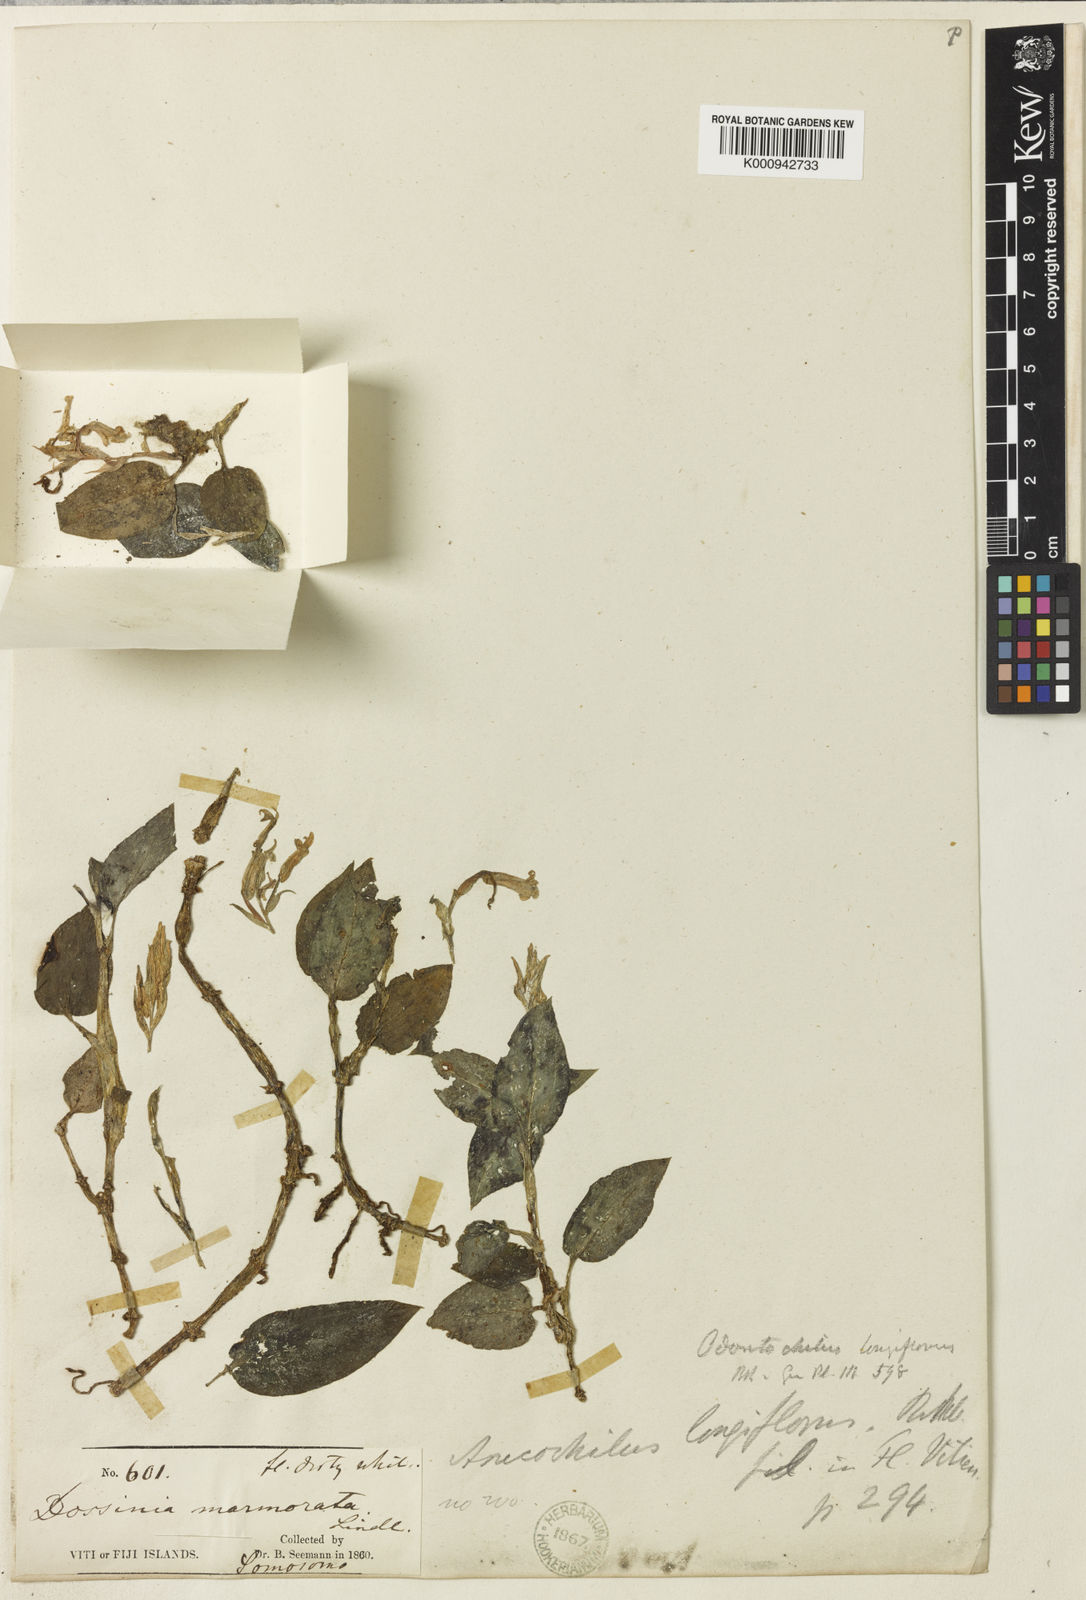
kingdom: Plantae
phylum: Tracheophyta
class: Liliopsida
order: Asparagales
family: Orchidaceae
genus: Odontochilus
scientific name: Odontochilus longiflorus
